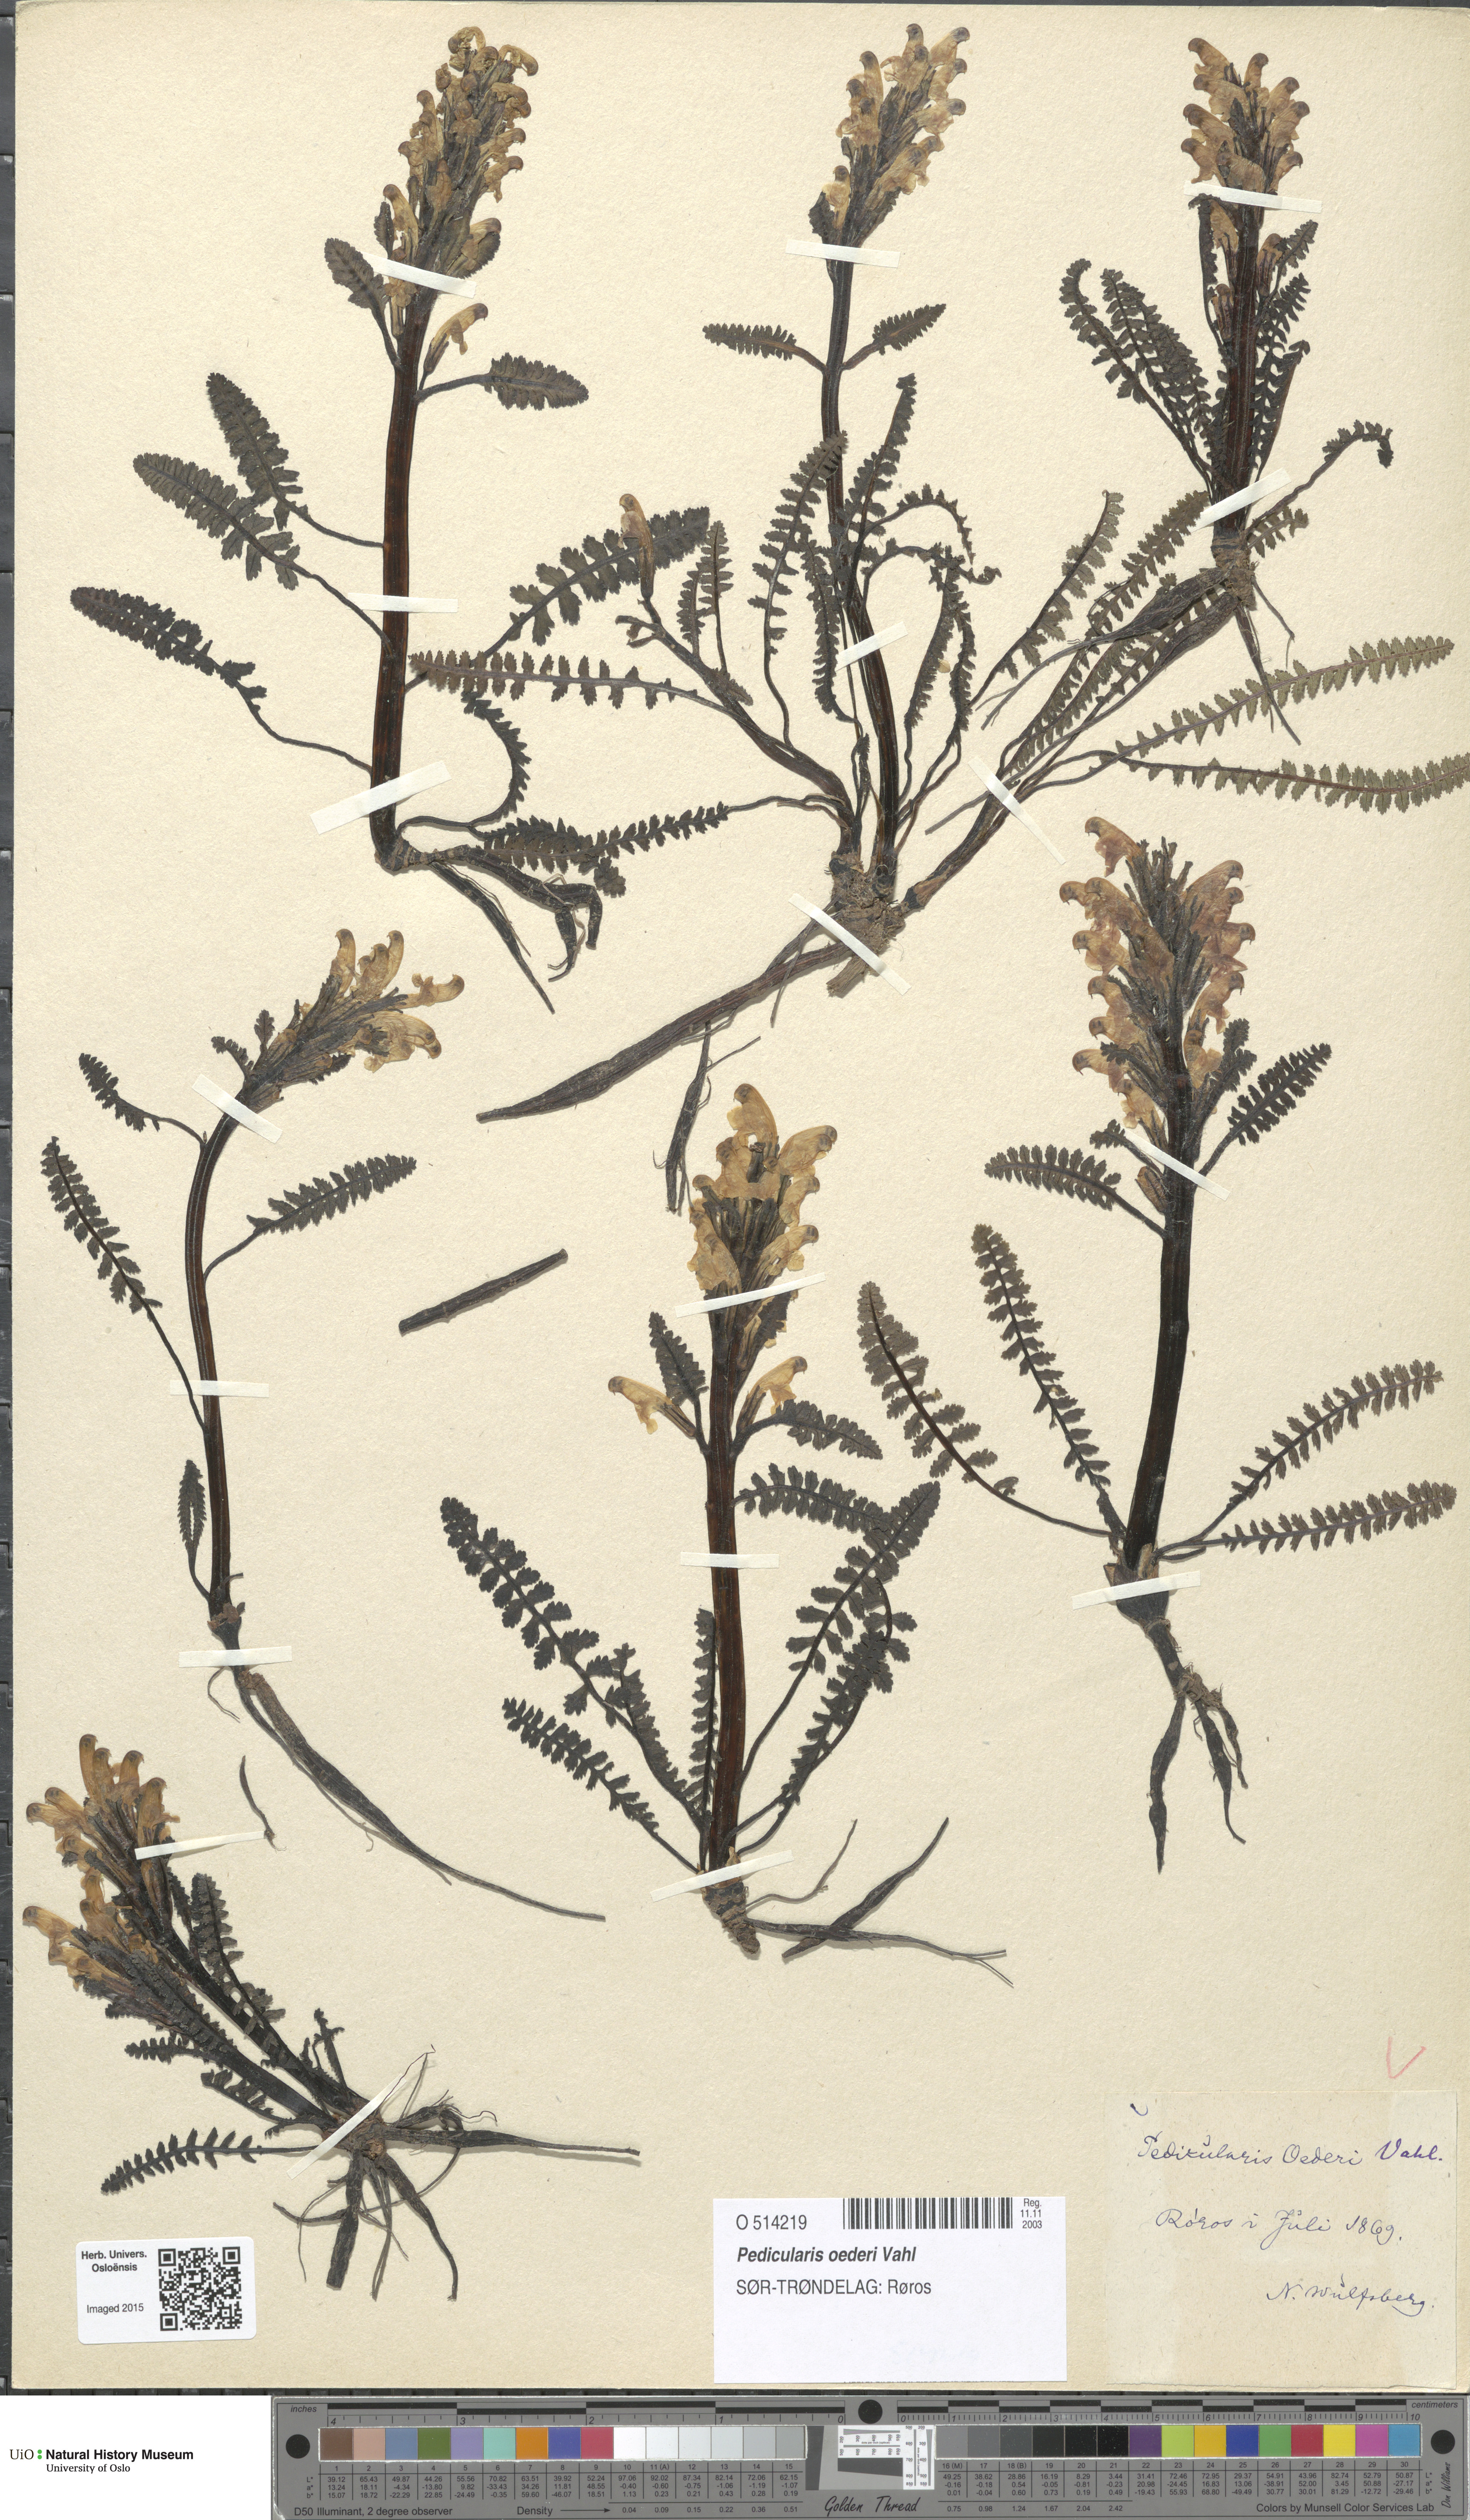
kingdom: Plantae
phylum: Tracheophyta
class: Magnoliopsida
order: Lamiales
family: Orobanchaceae
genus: Pedicularis
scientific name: Pedicularis oederi
